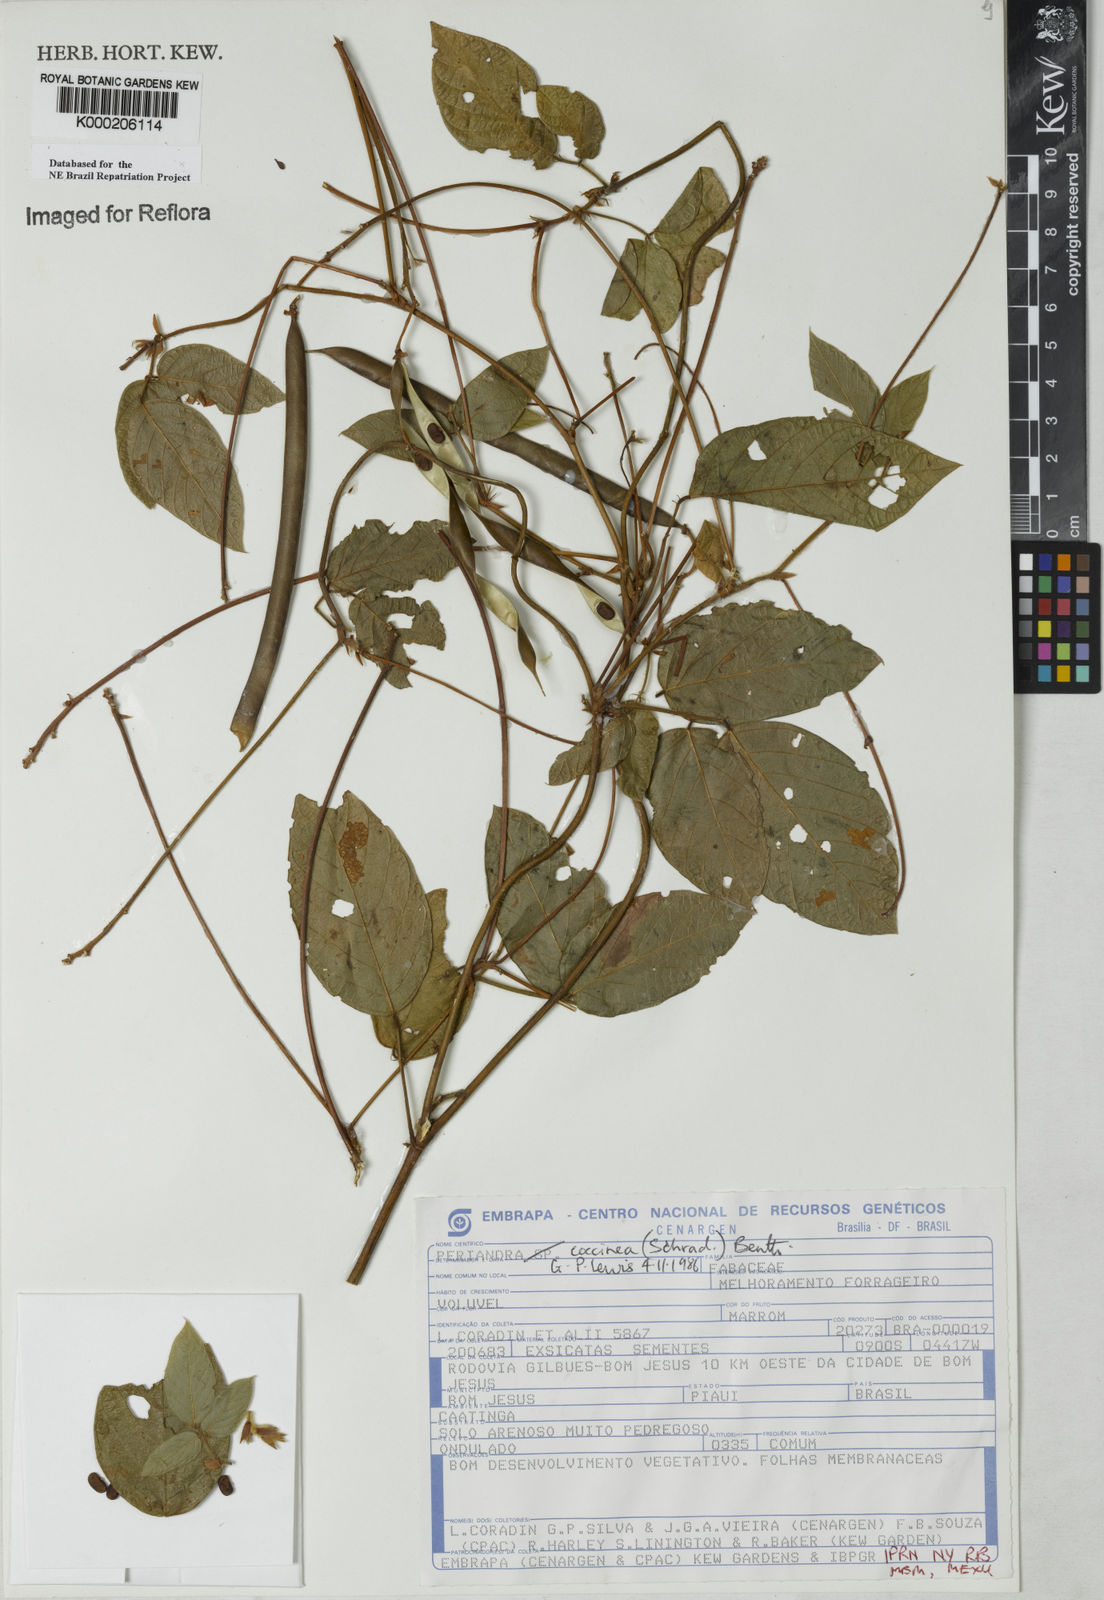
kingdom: Plantae
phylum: Tracheophyta
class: Magnoliopsida
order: Fabales
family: Fabaceae
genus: Periandra
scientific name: Periandra coccinea
